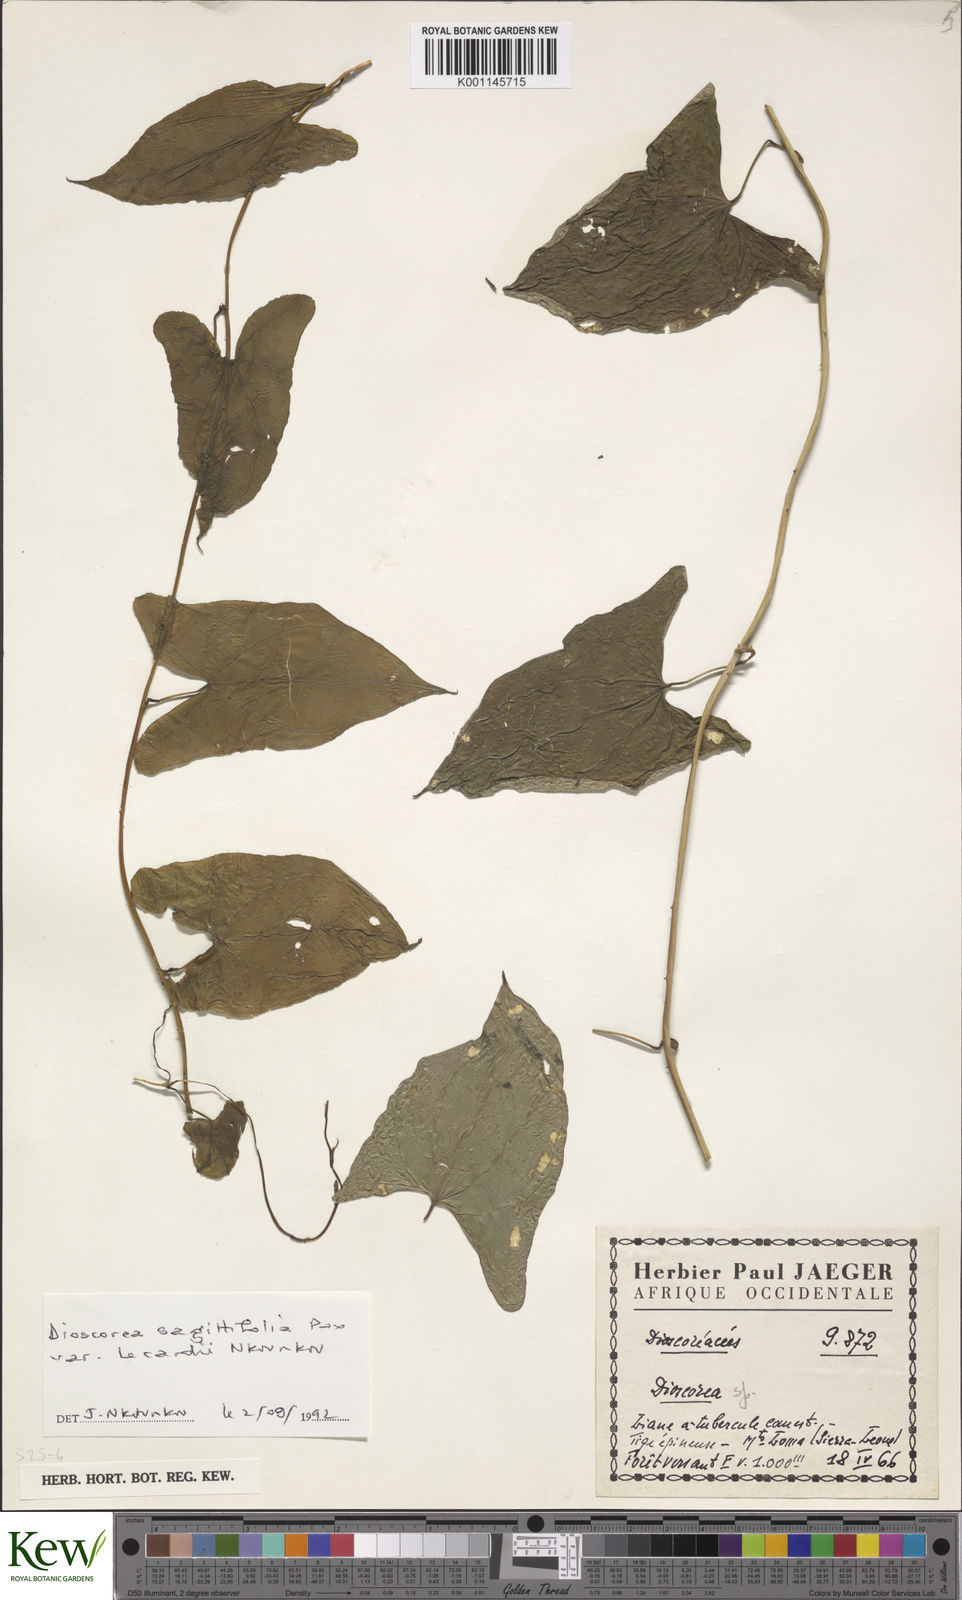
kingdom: Plantae
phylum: Tracheophyta
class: Liliopsida
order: Dioscoreales
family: Dioscoreaceae
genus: Dioscorea
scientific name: Dioscorea sagittifolia
